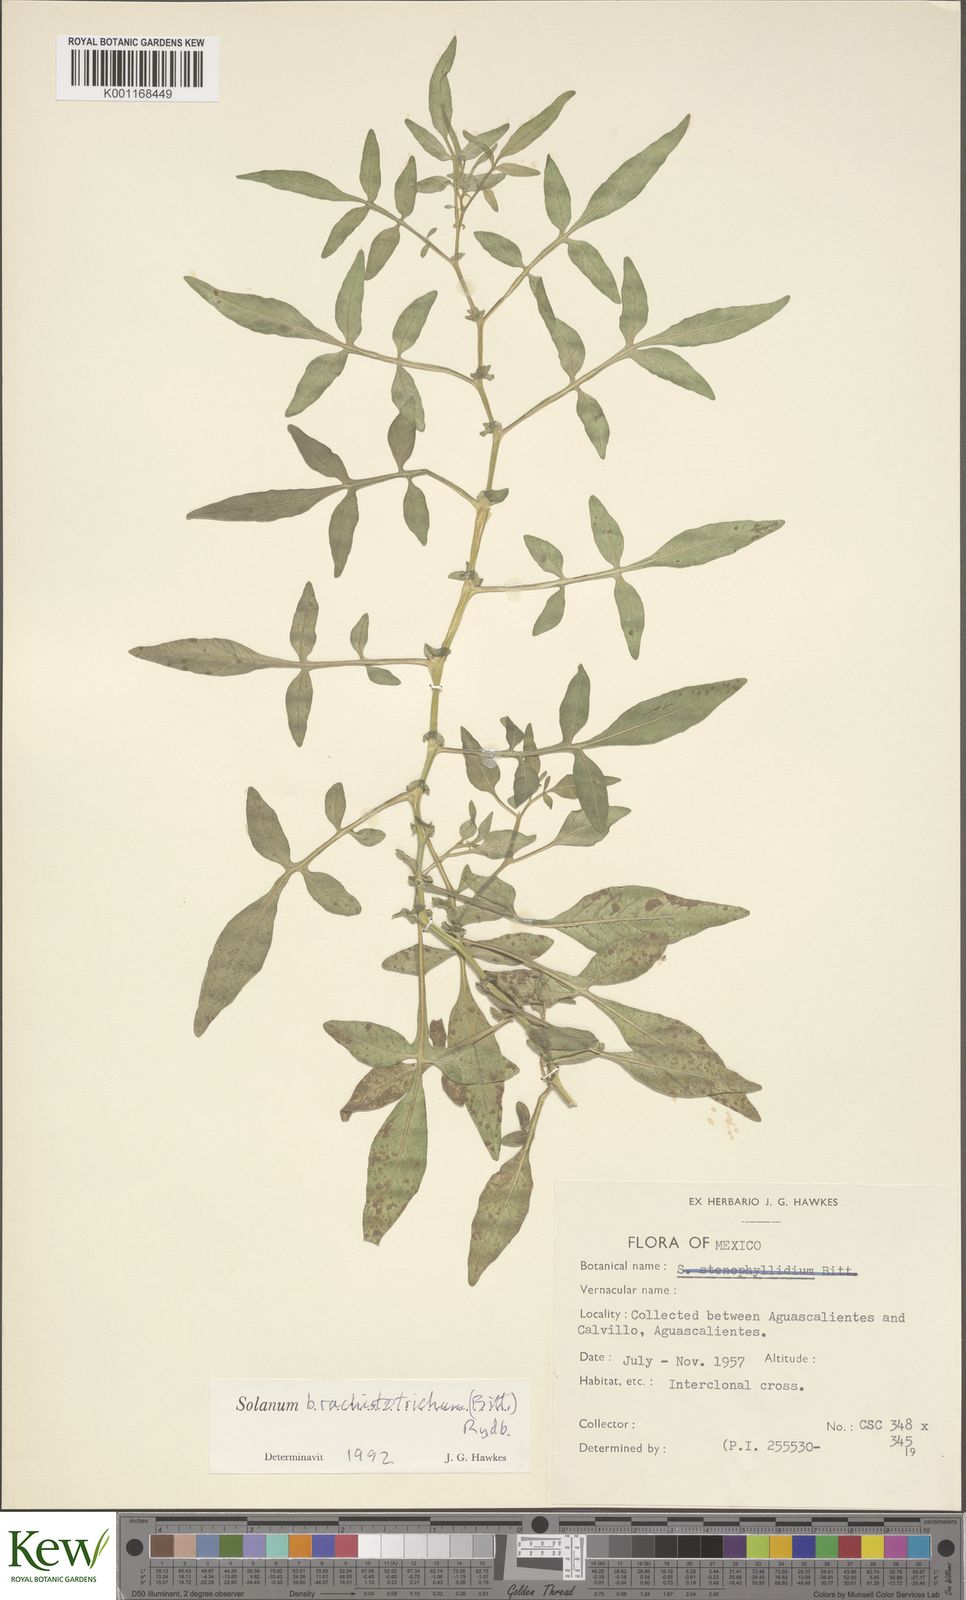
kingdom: Plantae
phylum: Tracheophyta
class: Magnoliopsida
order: Solanales
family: Solanaceae
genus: Solanum
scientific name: Solanum
